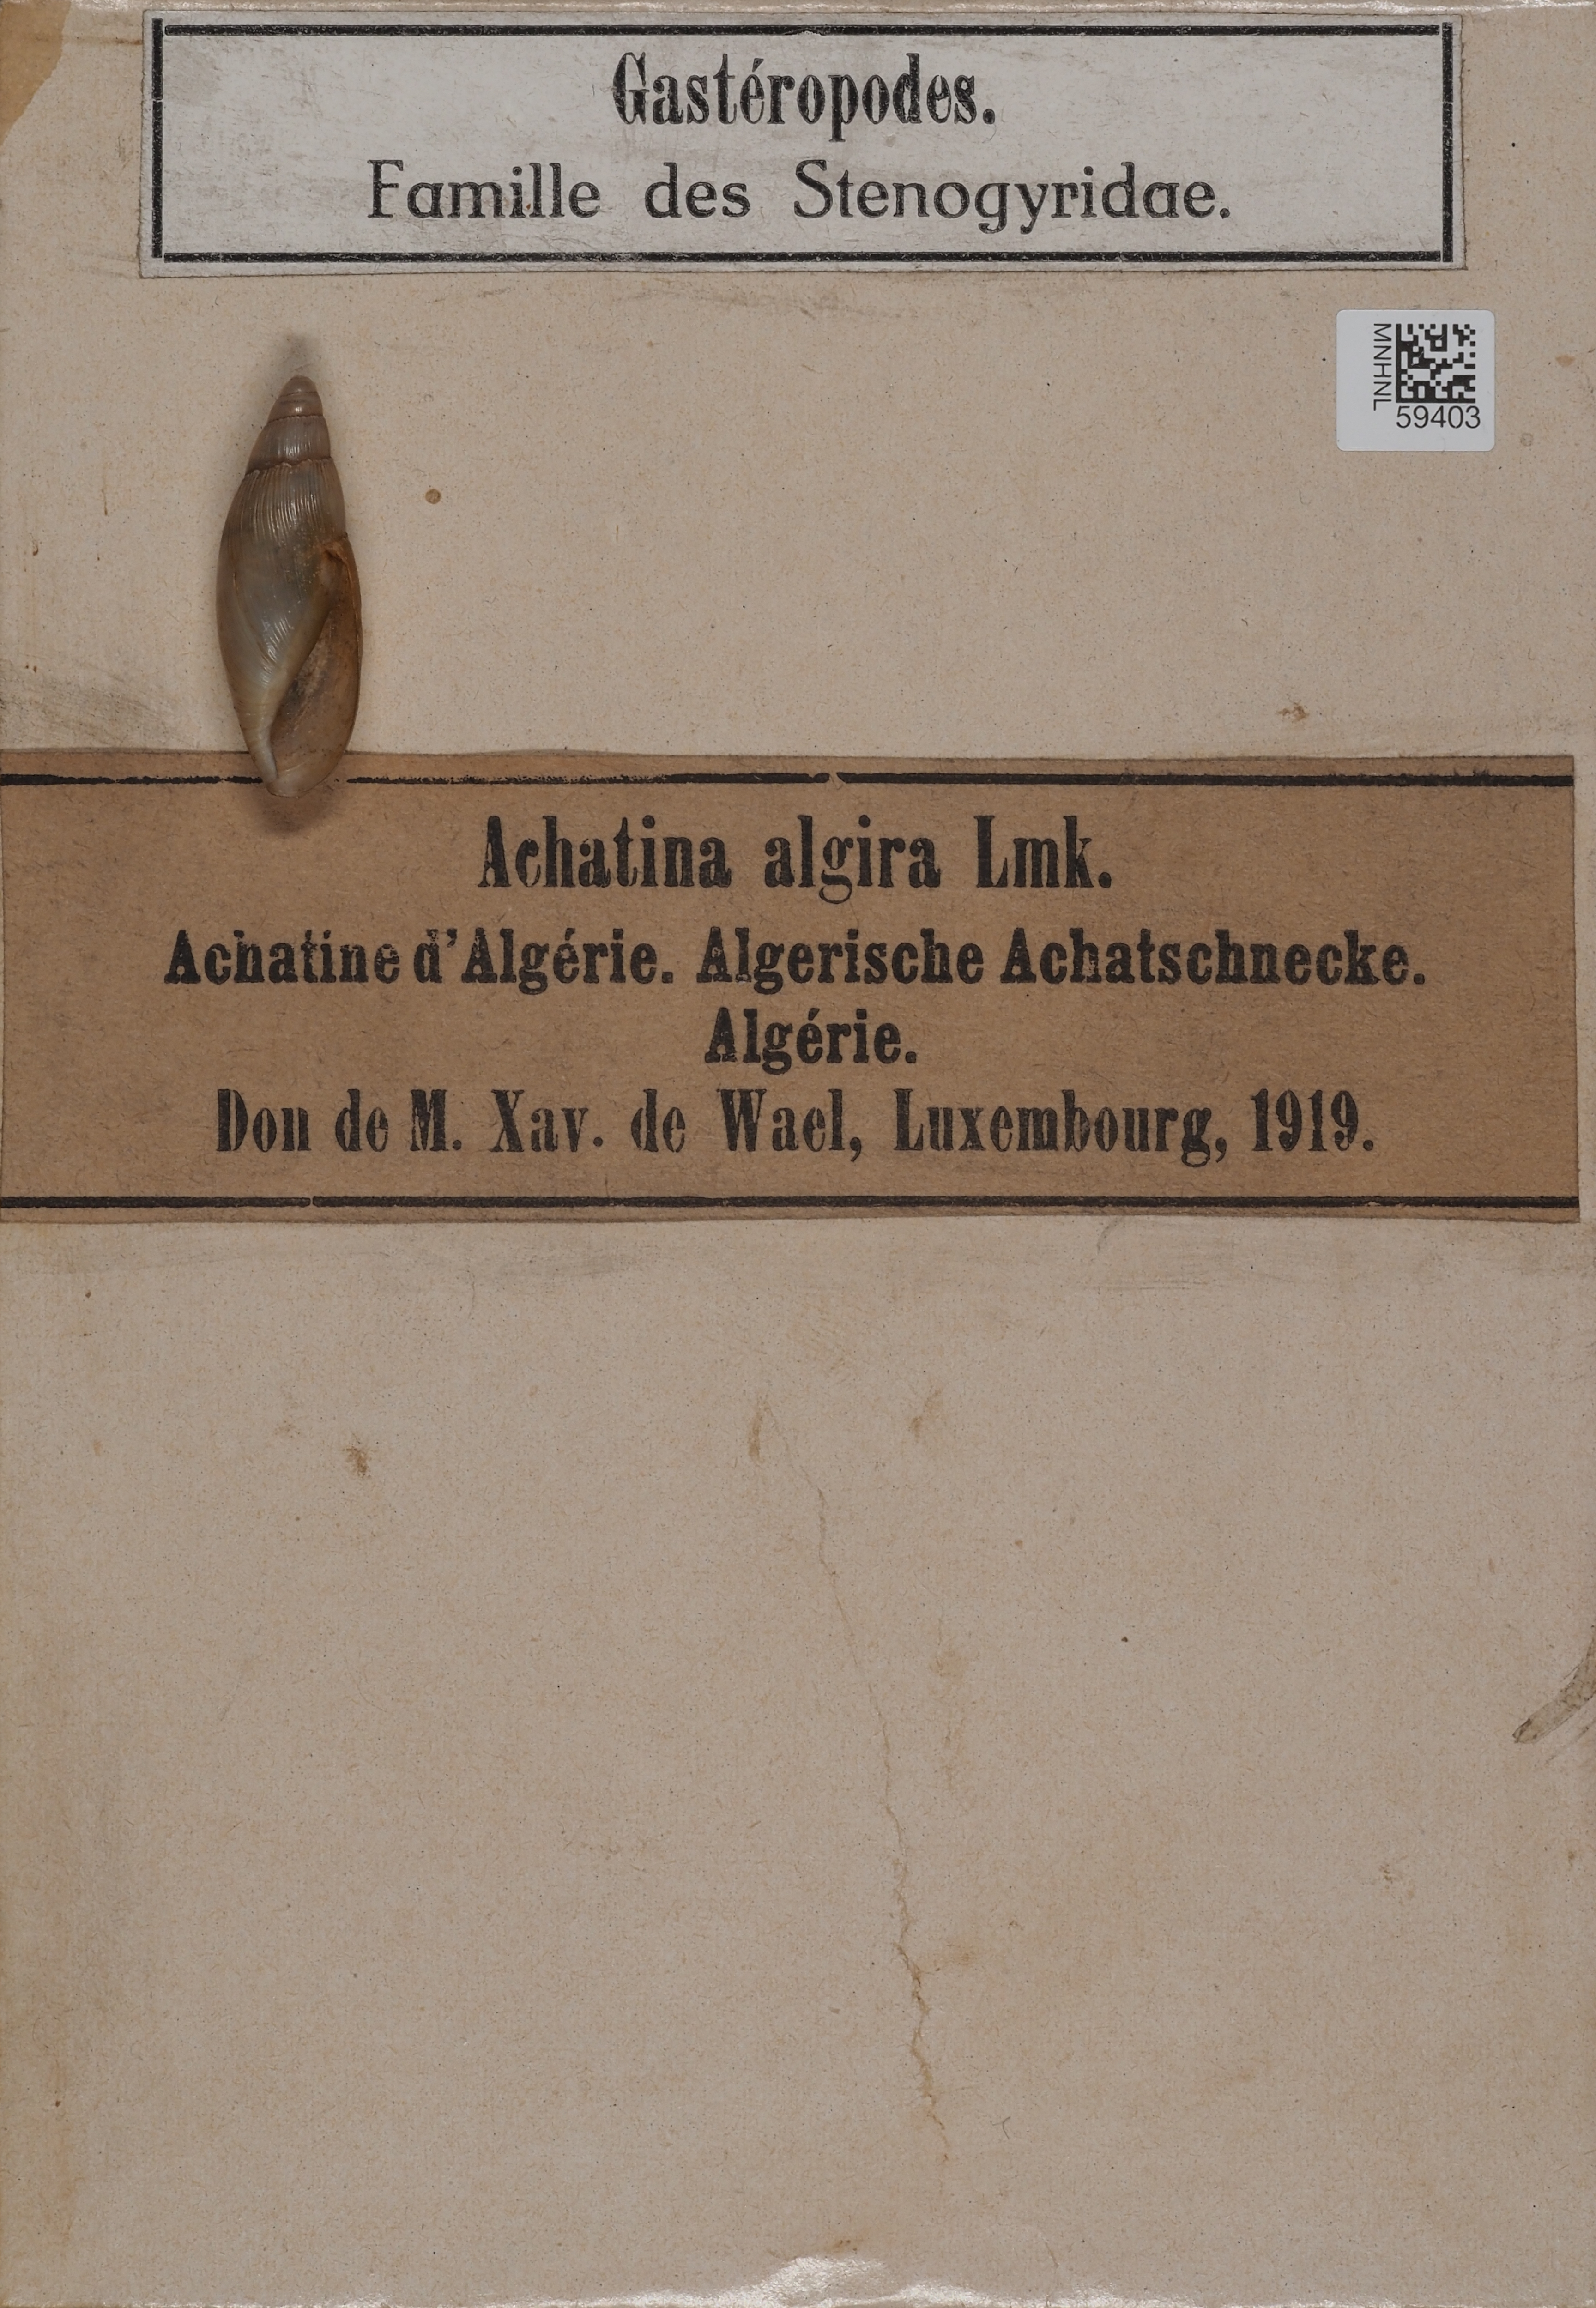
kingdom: Animalia
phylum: Mollusca
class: Gastropoda
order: Stylommatophora
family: Spiraxidae
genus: Poiretia
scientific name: Poiretia algira
